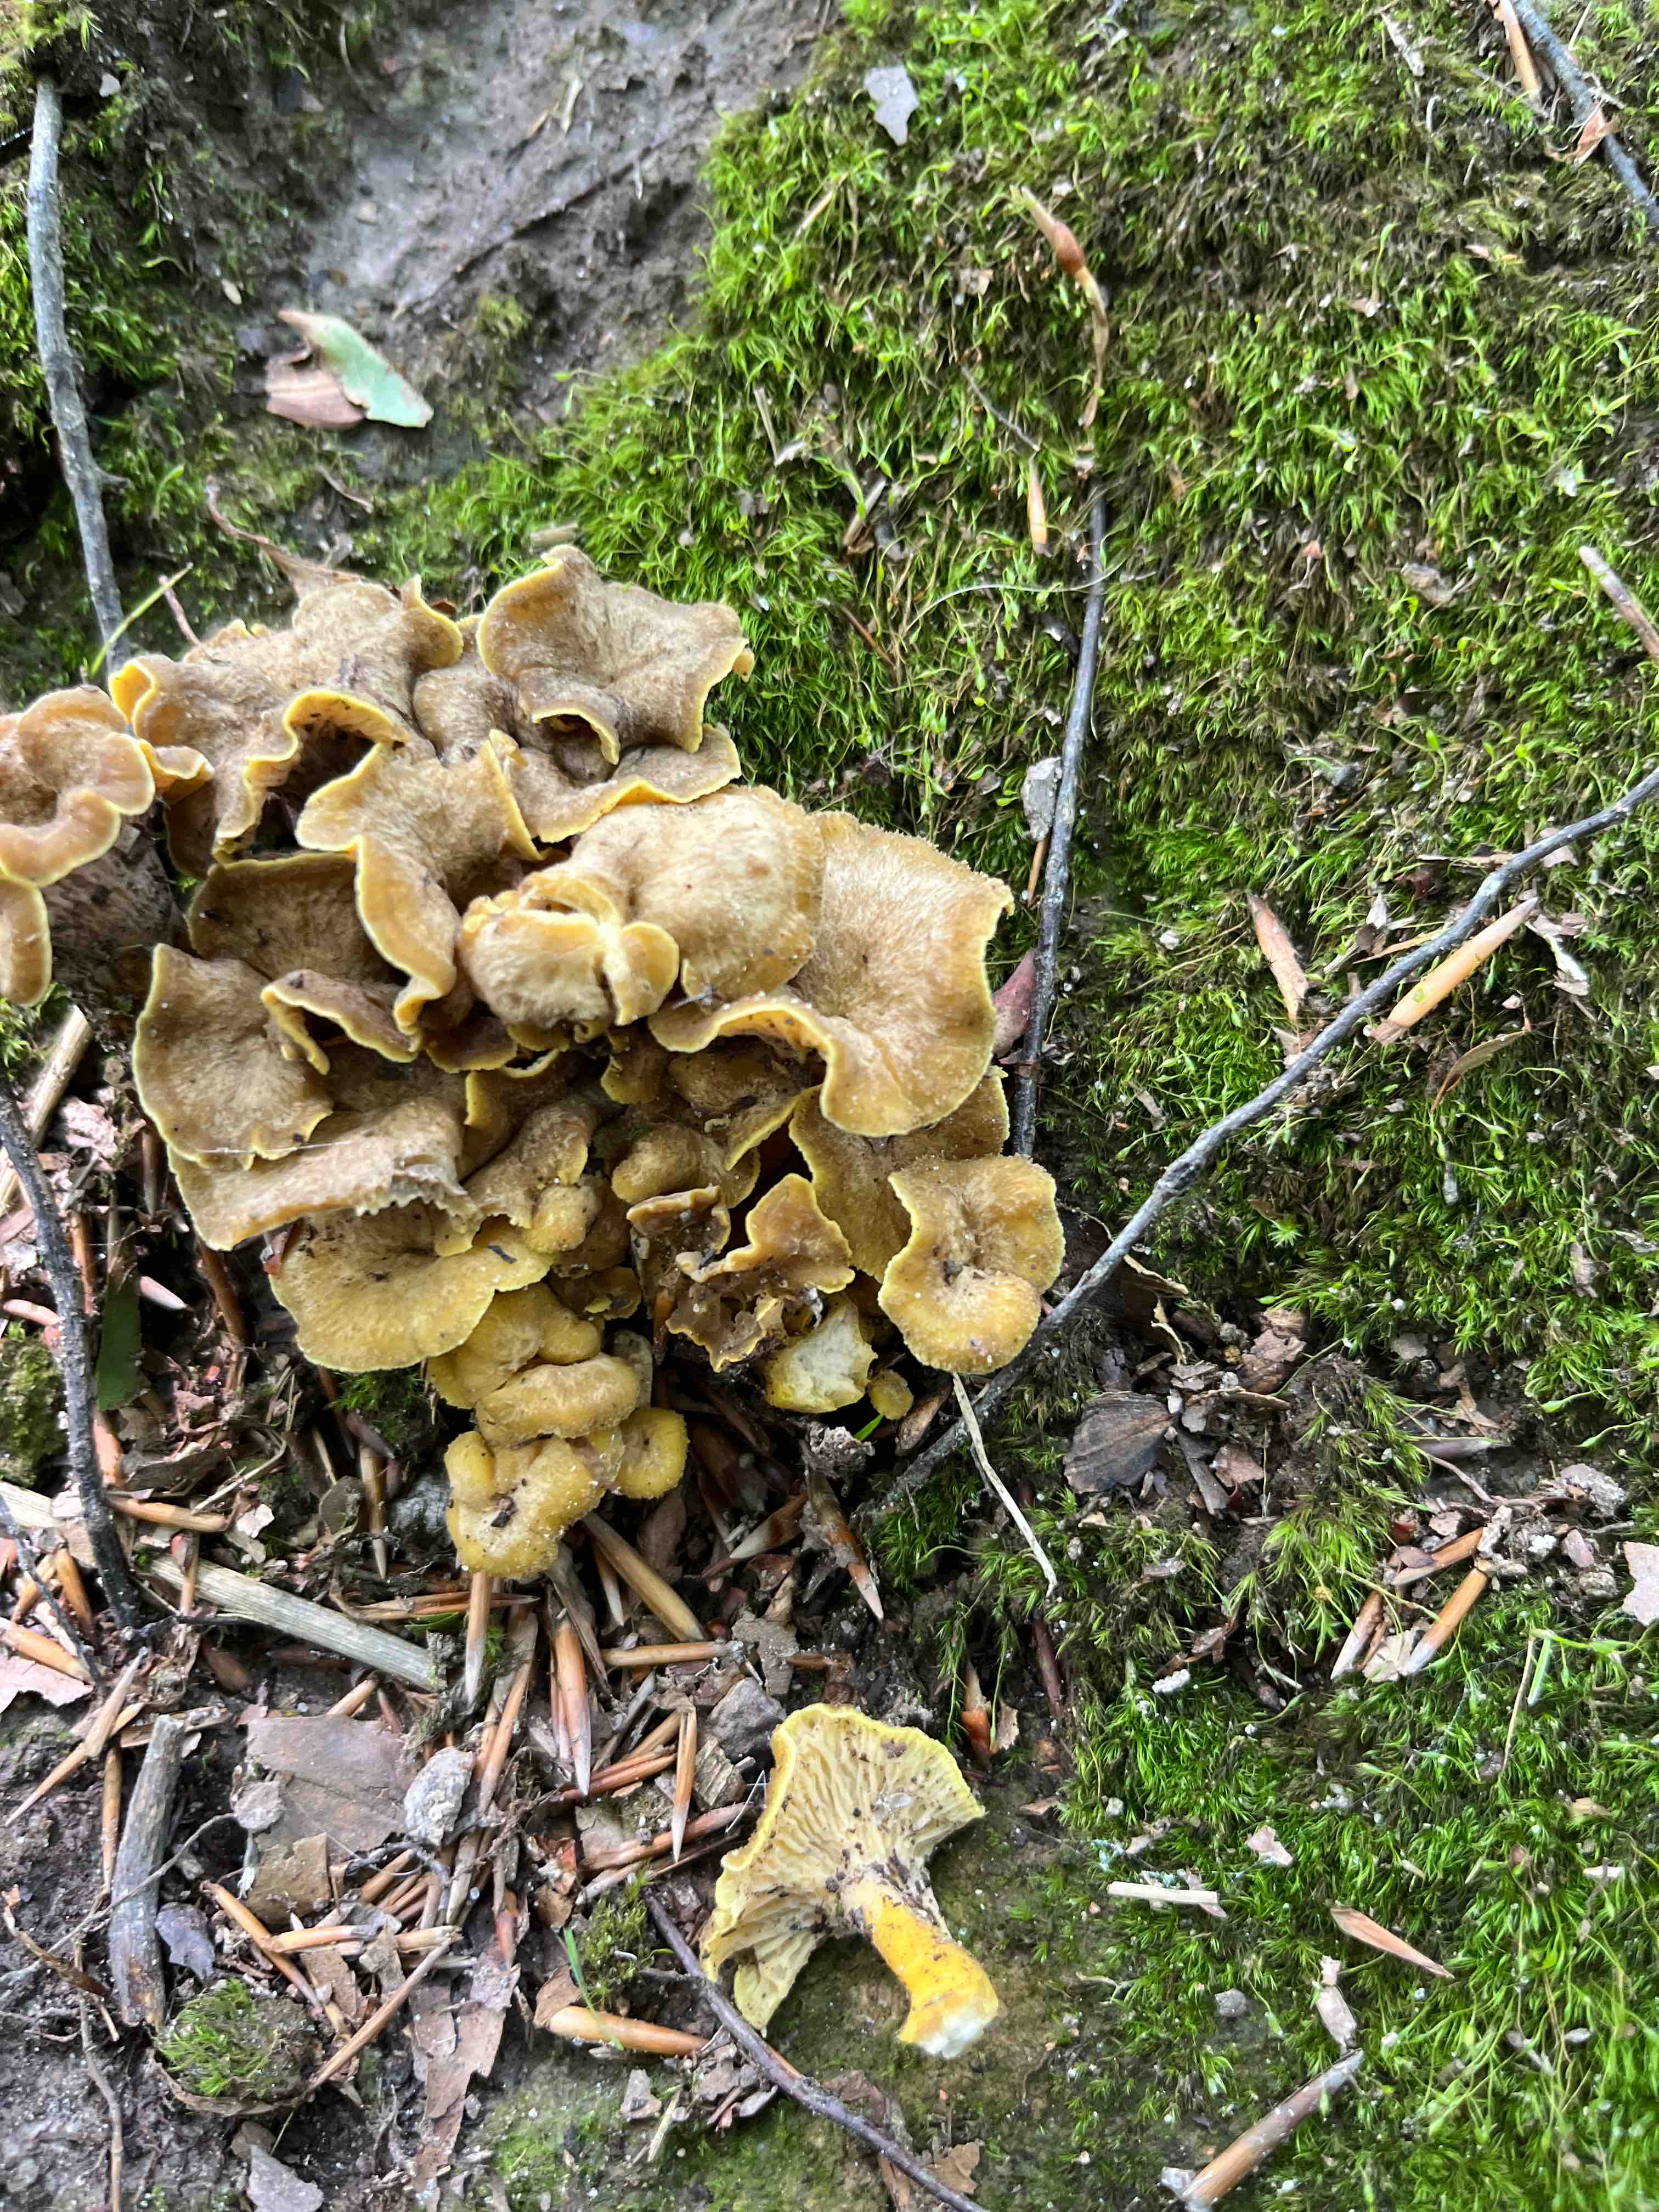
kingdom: Fungi
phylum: Basidiomycota
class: Agaricomycetes
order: Cantharellales
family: Hydnaceae
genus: Cantharellus
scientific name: Cantharellus melanoxeros
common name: sværtende kantarel
